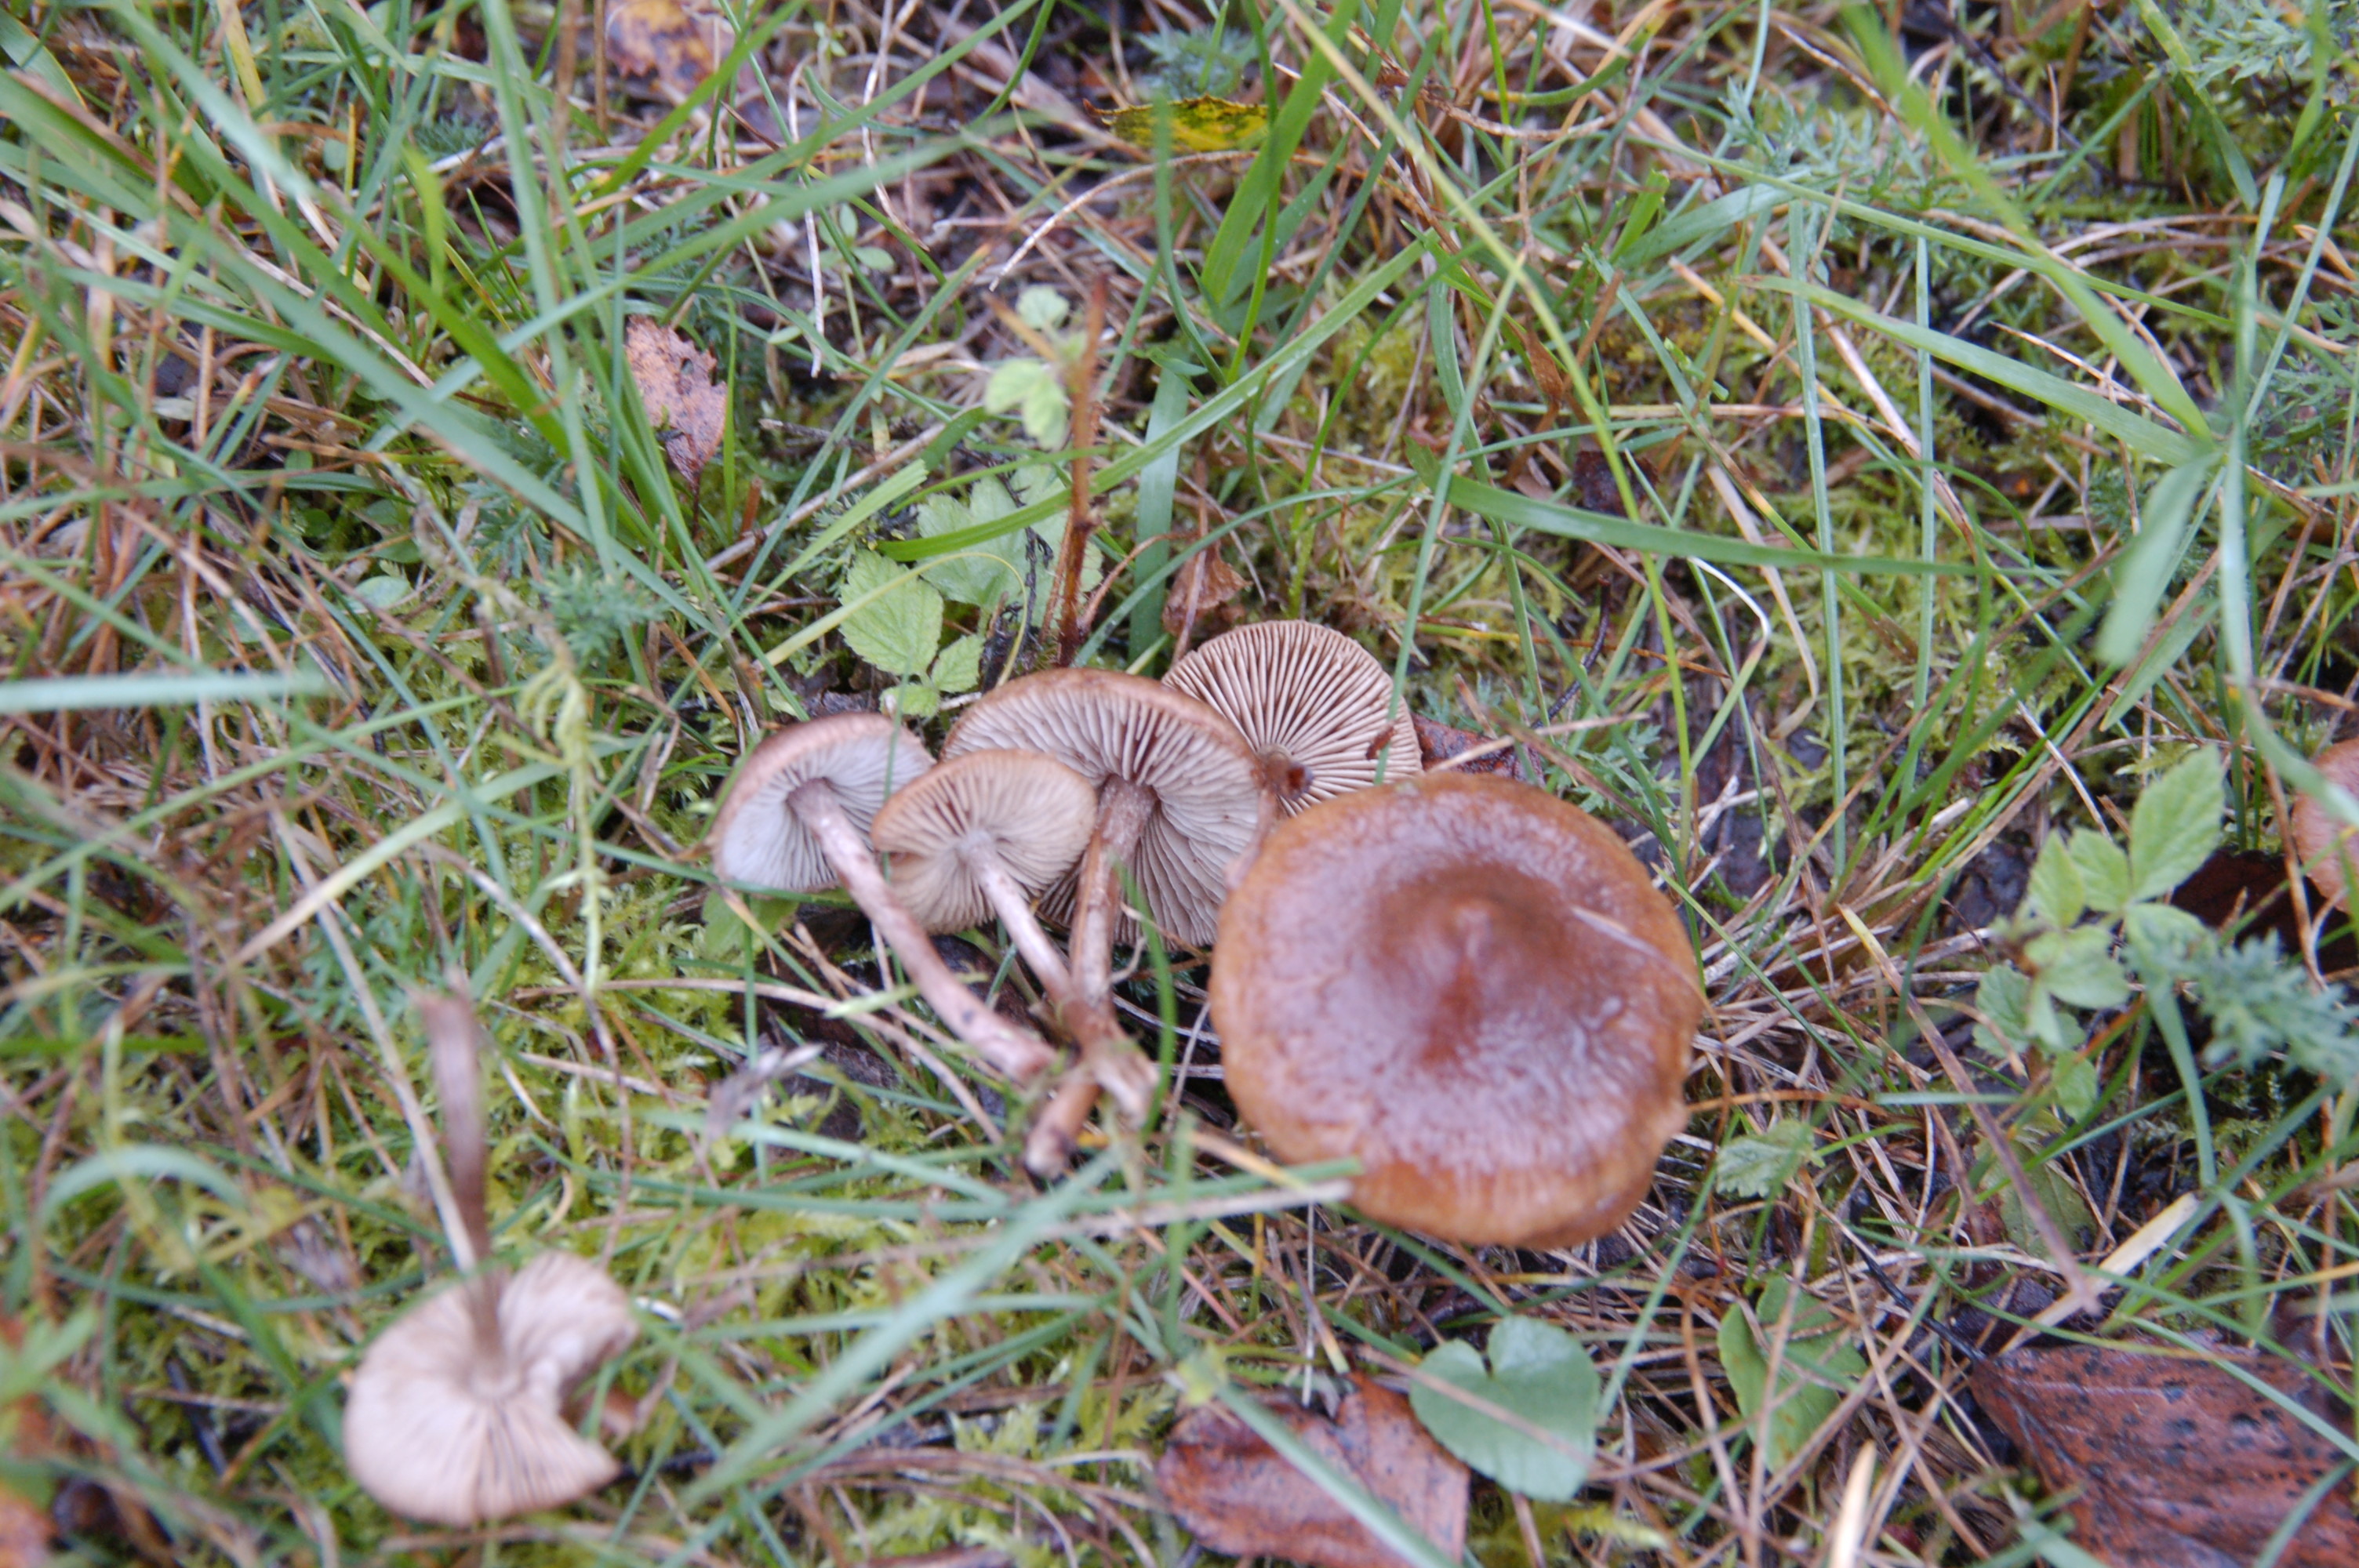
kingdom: Fungi
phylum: Basidiomycota
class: Agaricomycetes
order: Agaricales
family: Inocybaceae
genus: Inocybe
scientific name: Inocybe
